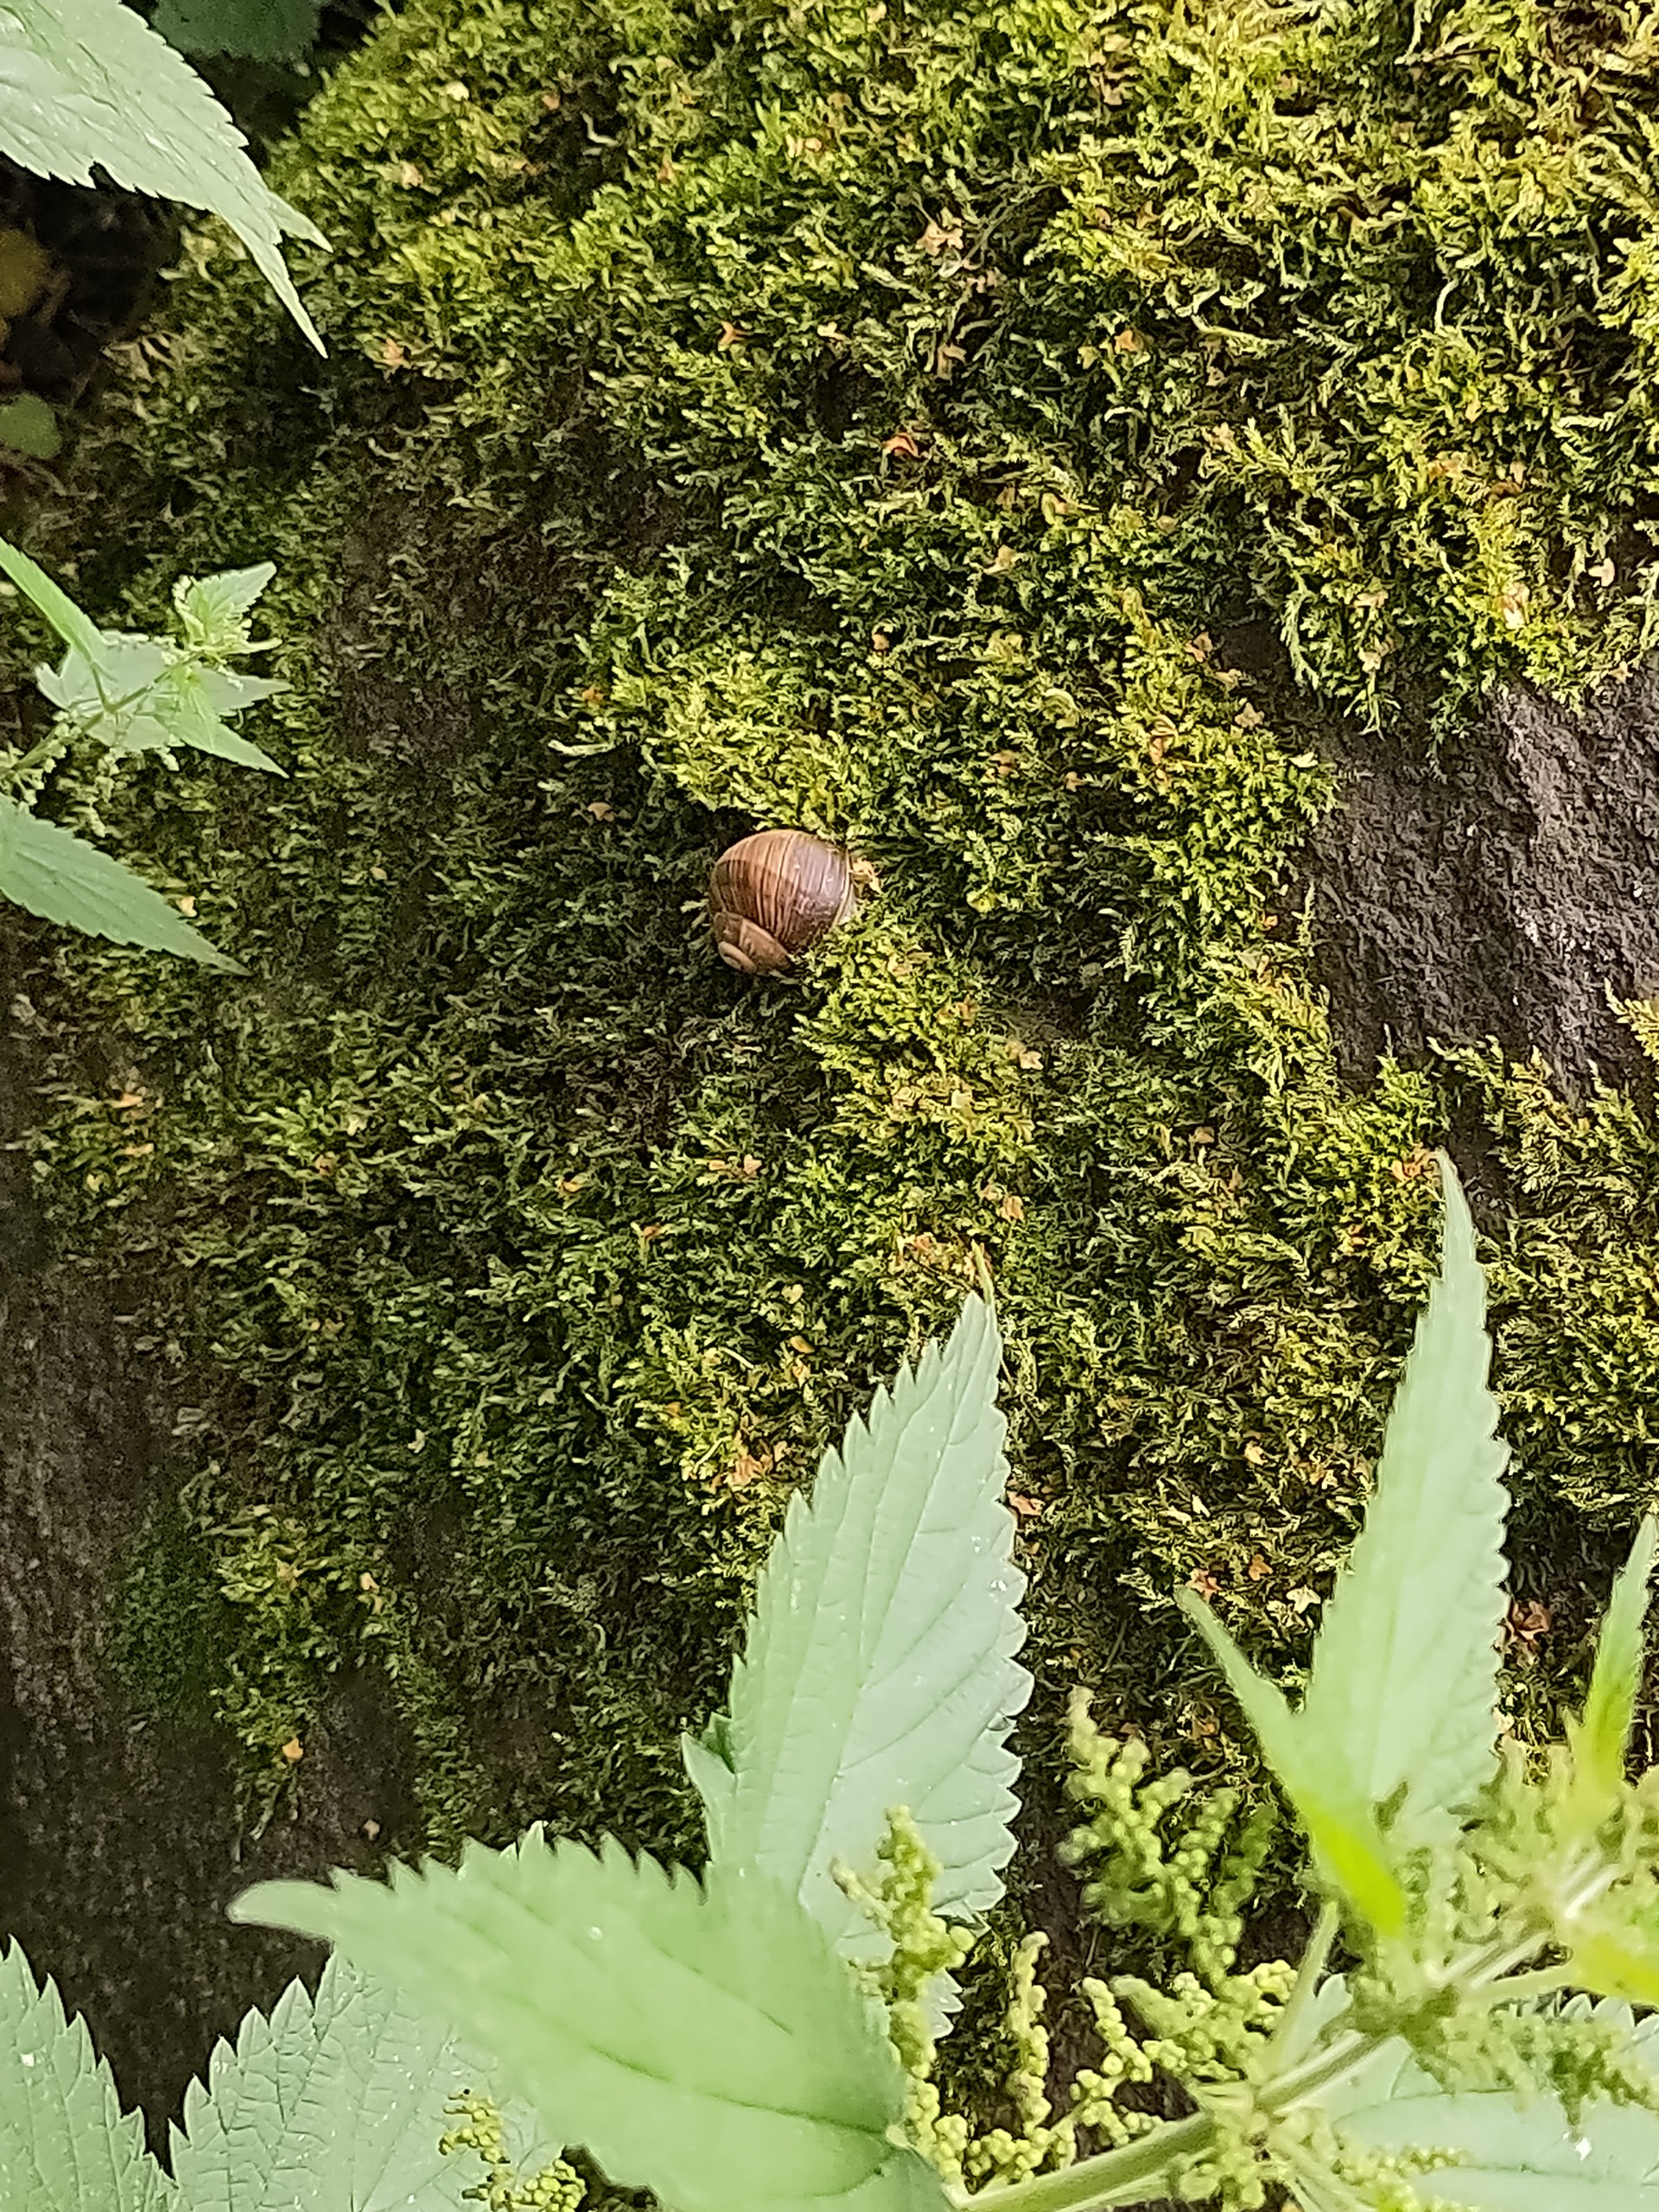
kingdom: Animalia
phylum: Mollusca
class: Gastropoda
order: Stylommatophora
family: Helicidae
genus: Helix
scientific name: Helix pomatia
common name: Vinbjergsnegl
